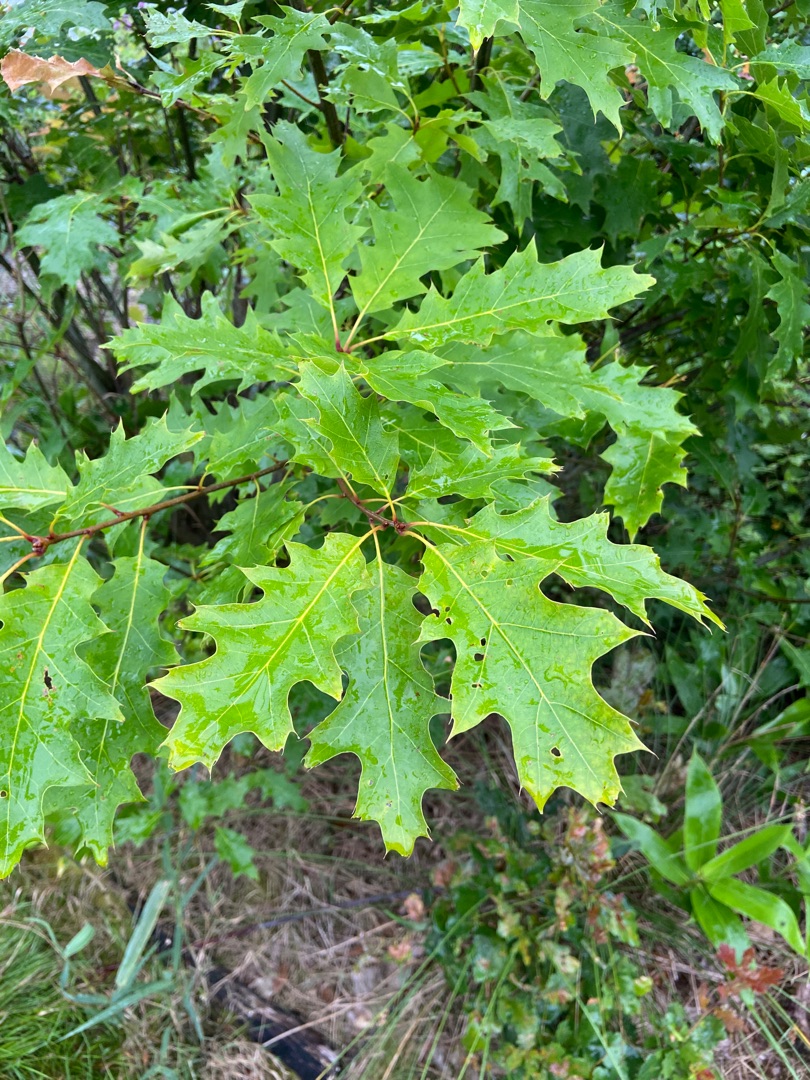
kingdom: Plantae
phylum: Tracheophyta
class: Magnoliopsida
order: Fagales
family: Fagaceae
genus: Quercus
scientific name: Quercus rubra
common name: Rød-eg
